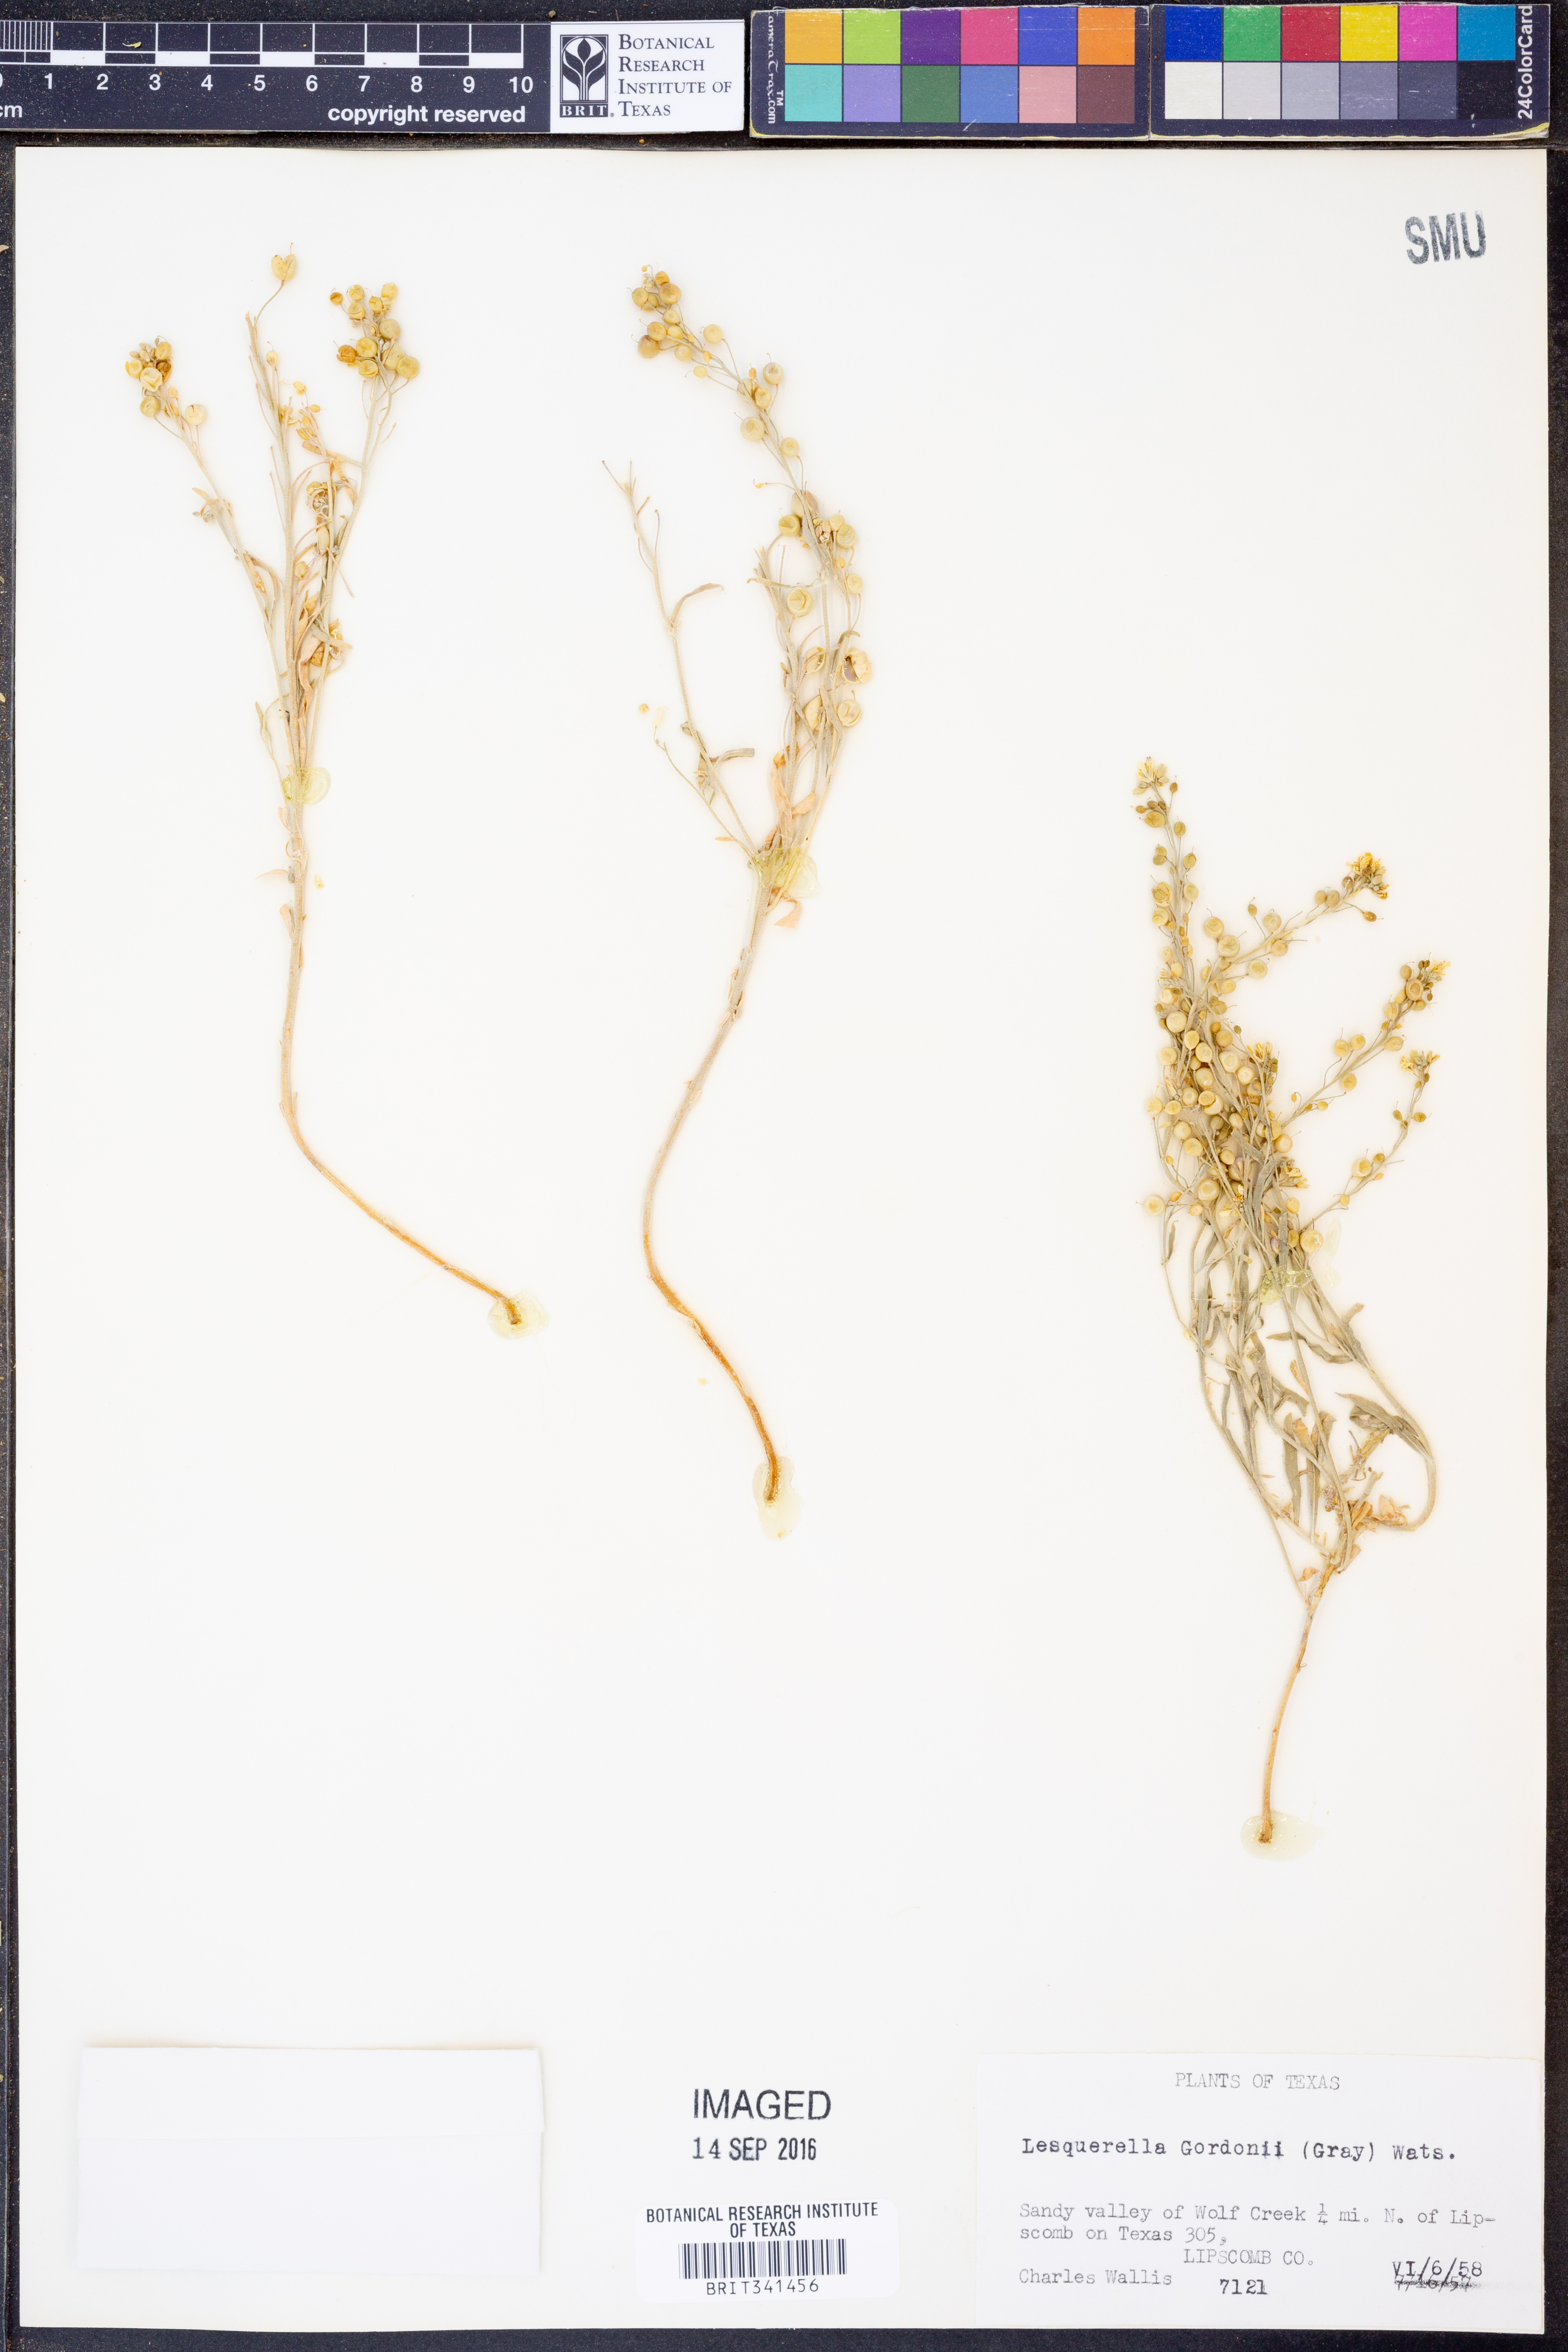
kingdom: Plantae
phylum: Tracheophyta
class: Magnoliopsida
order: Brassicales
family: Brassicaceae
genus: Physaria
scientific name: Physaria gordonii
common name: Gordon's bladderpod
